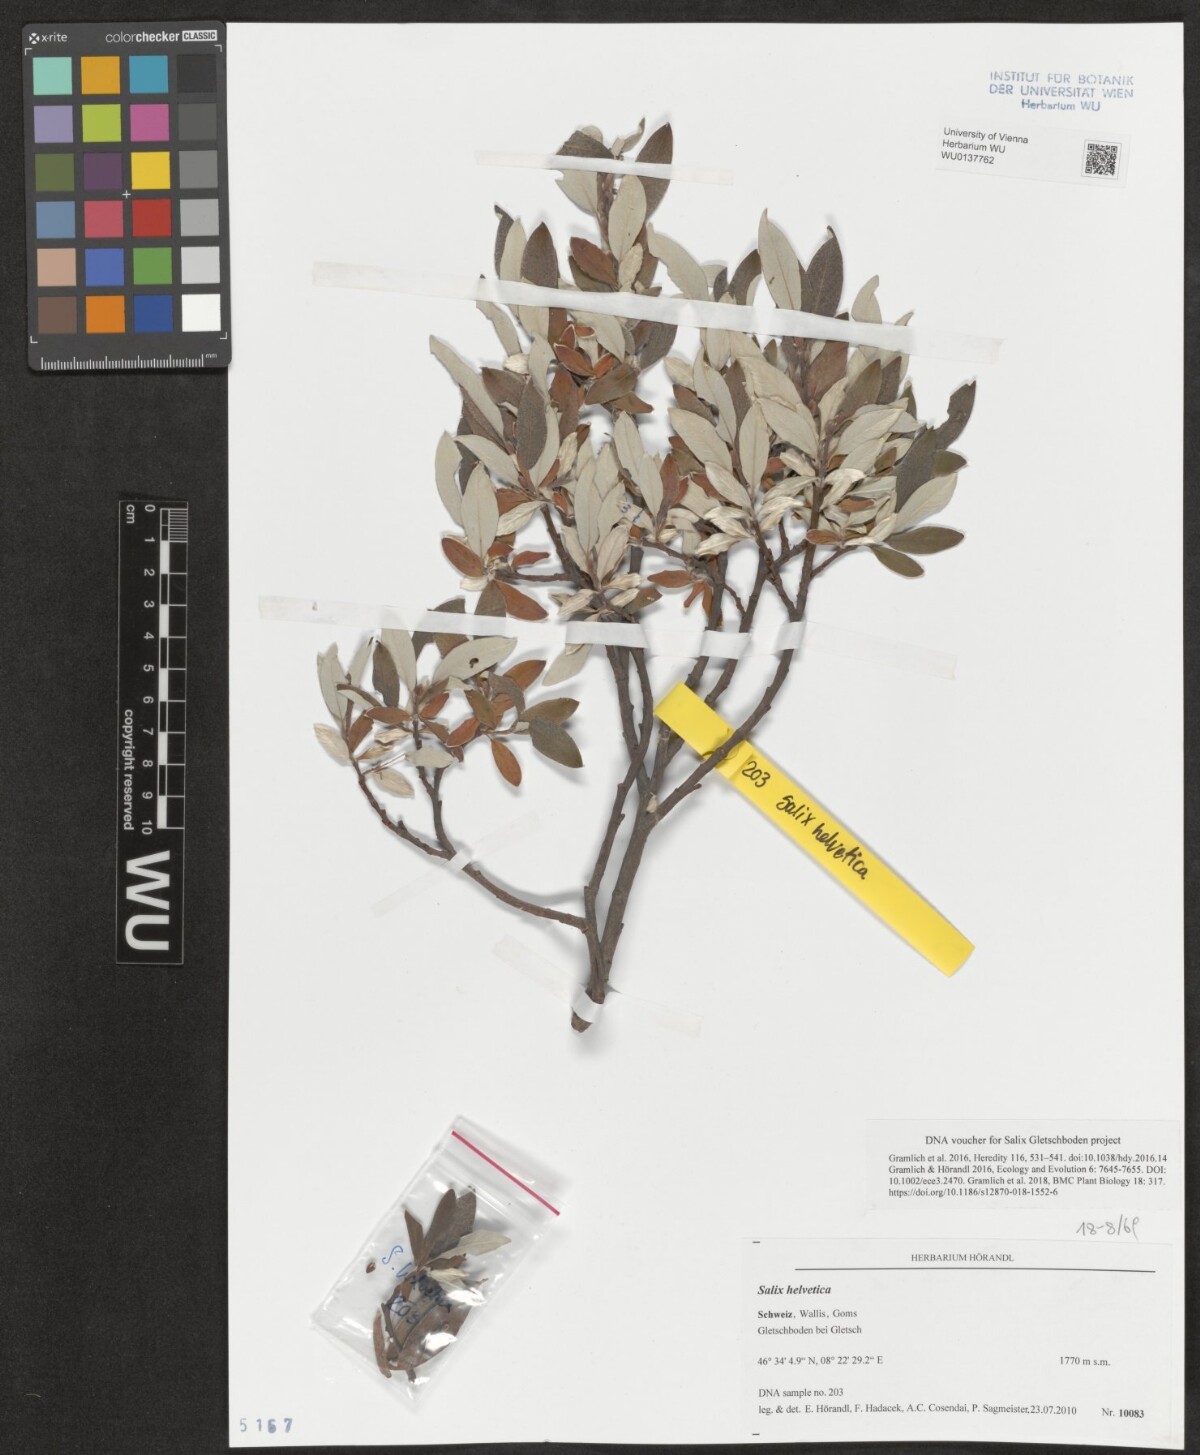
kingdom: Plantae
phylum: Tracheophyta
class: Magnoliopsida
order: Malpighiales
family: Salicaceae
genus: Salix
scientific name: Salix helvetica
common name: Swiss willow
